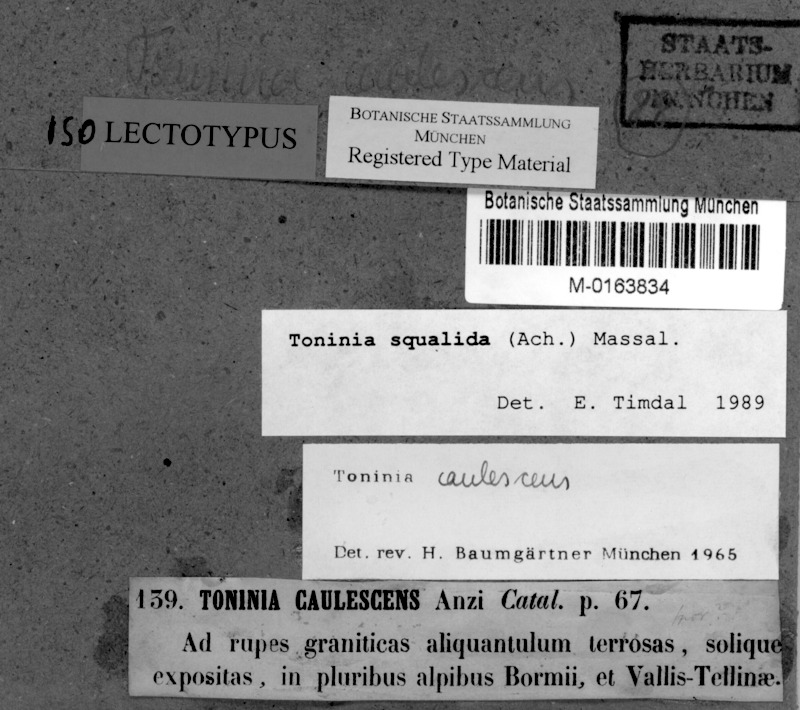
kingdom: Fungi
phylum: Ascomycota
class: Lecanoromycetes
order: Lecanorales
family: Ramalinaceae
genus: Toninia
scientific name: Toninia squalida
